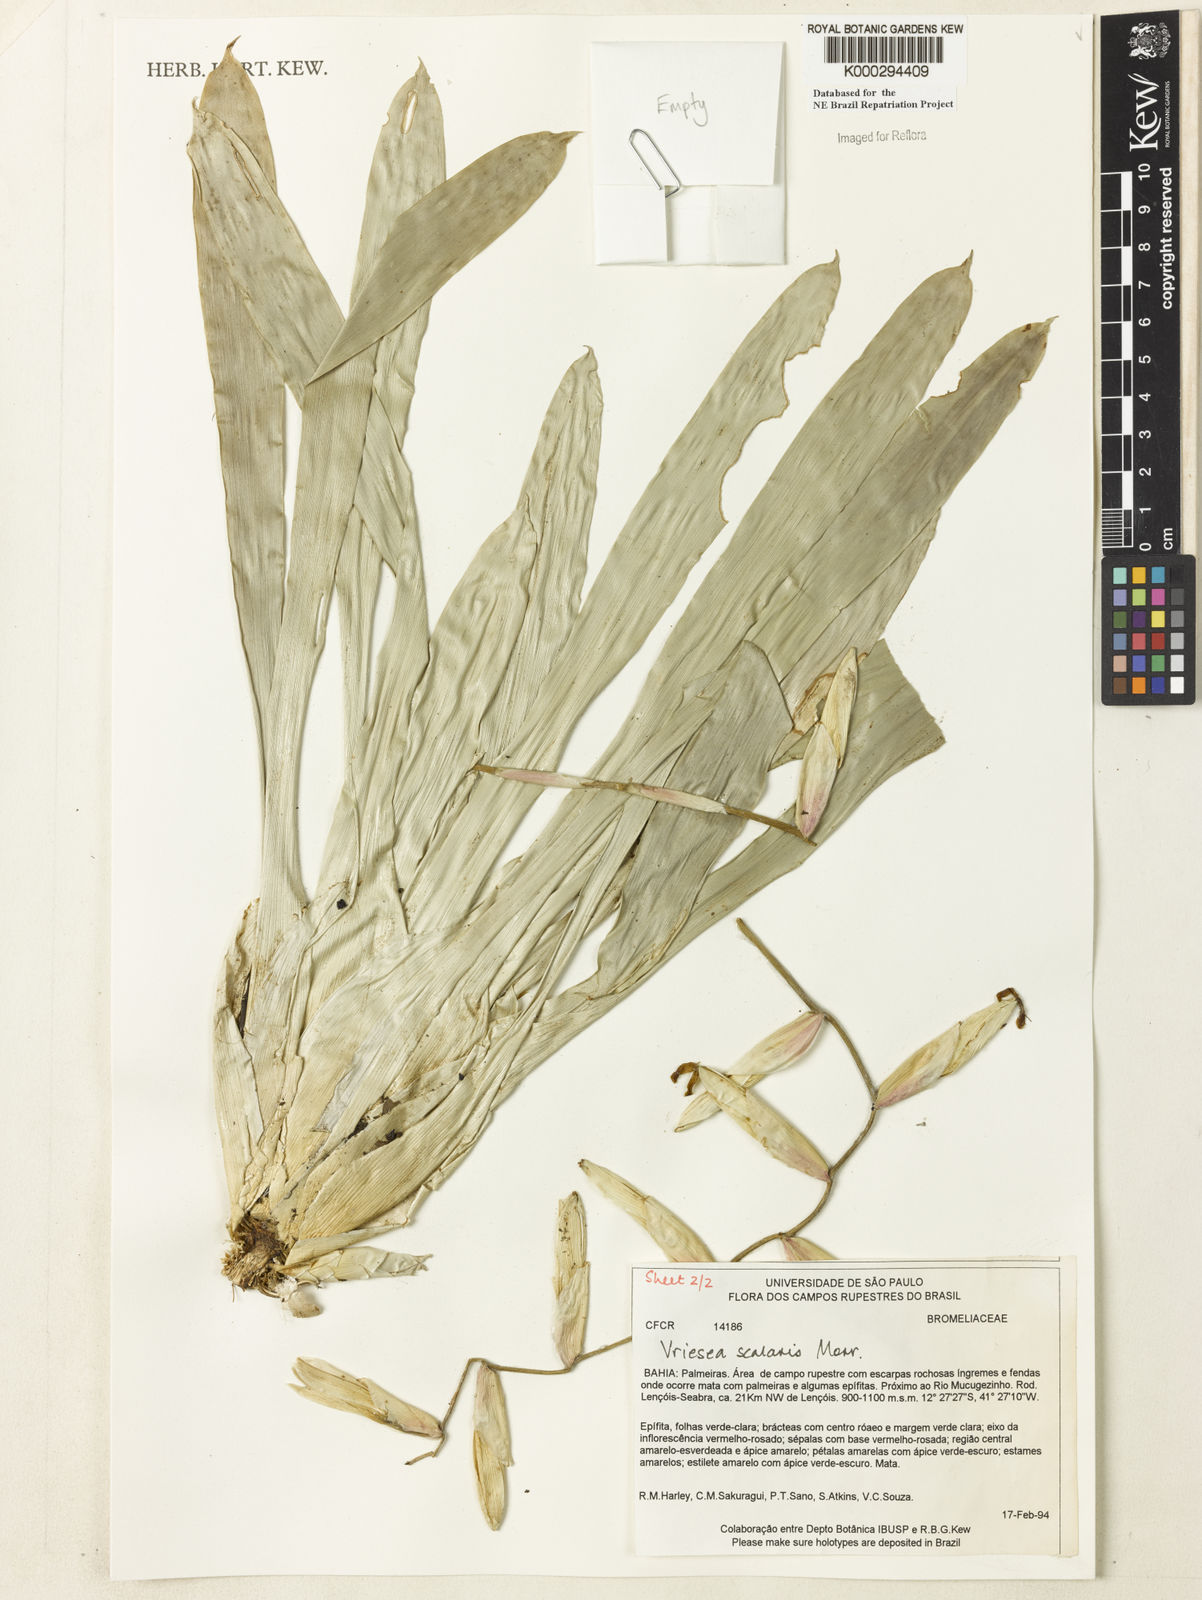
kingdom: Plantae
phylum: Tracheophyta
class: Liliopsida
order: Poales
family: Bromeliaceae
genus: Vriesea
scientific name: Vriesea scalaris
